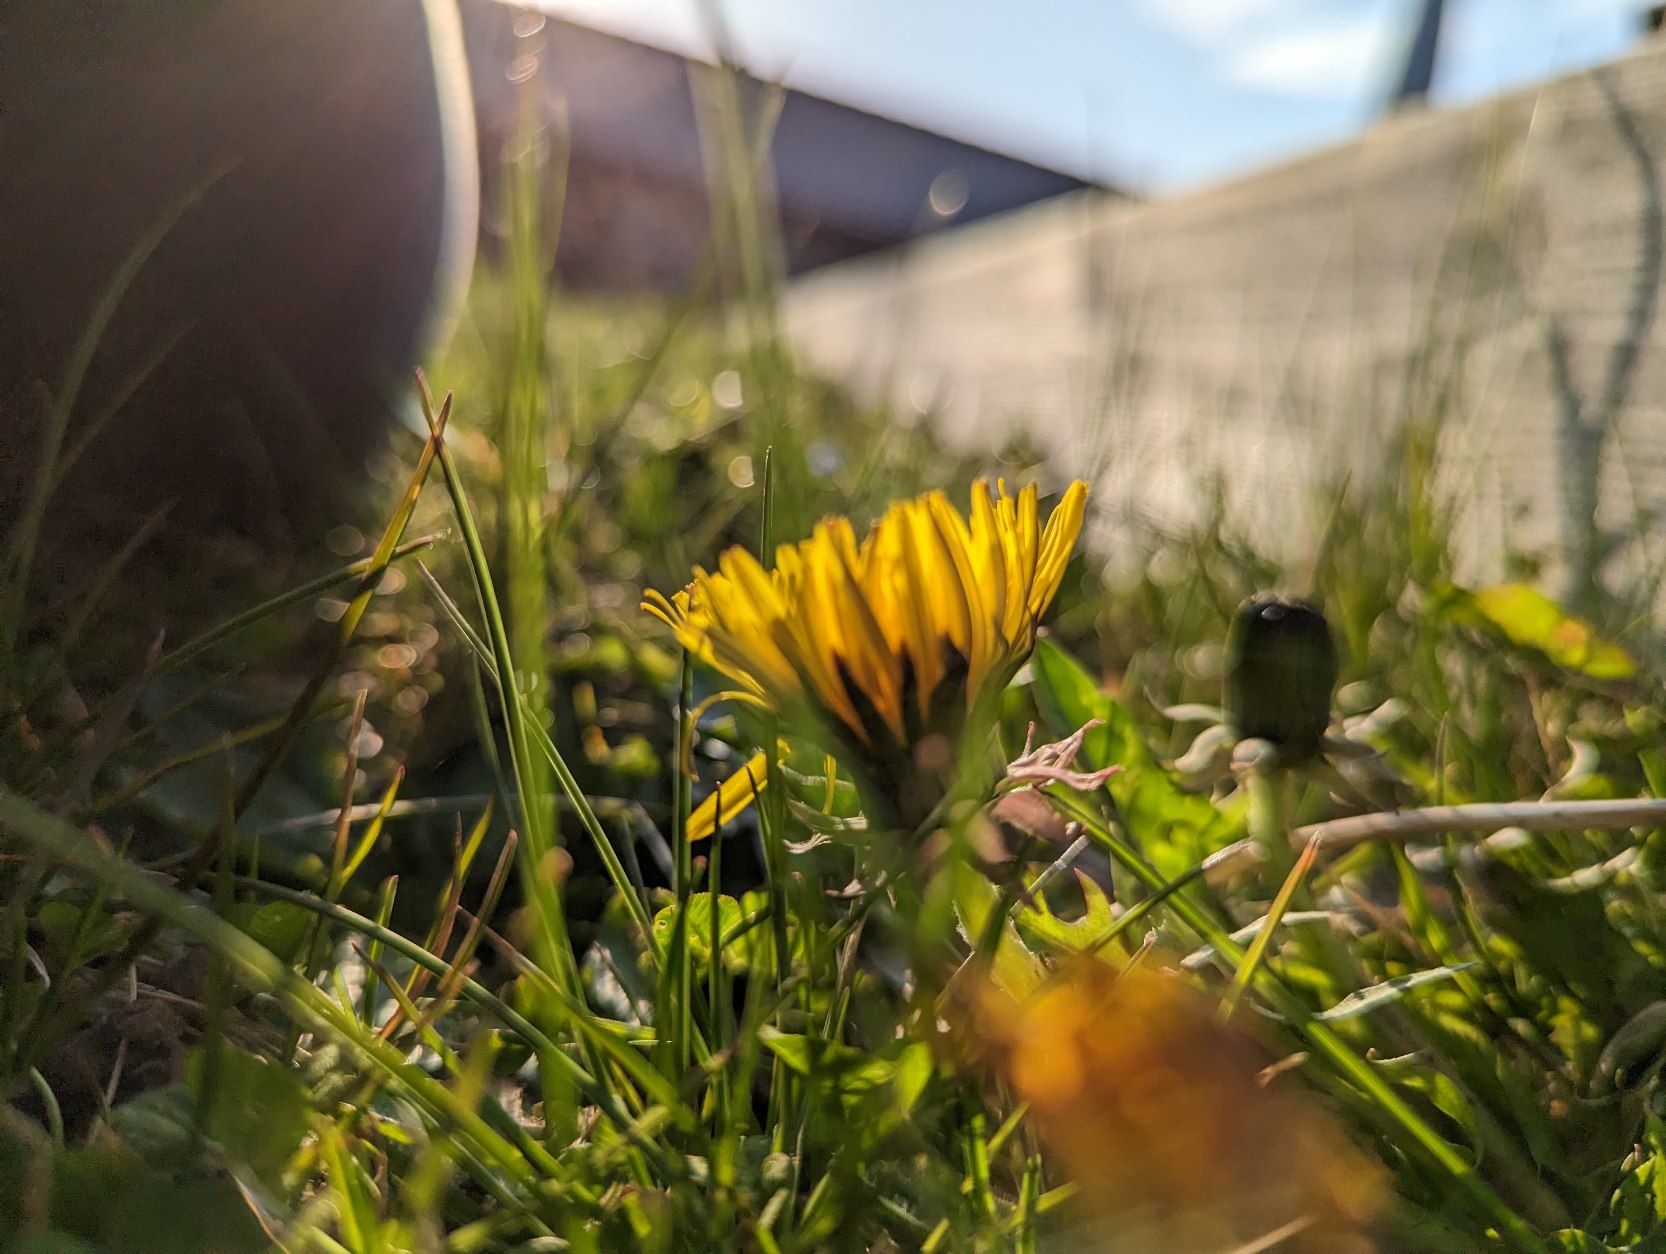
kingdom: Plantae
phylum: Tracheophyta
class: Magnoliopsida
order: Asterales
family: Asteraceae
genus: Taraxacum
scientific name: Taraxacum
